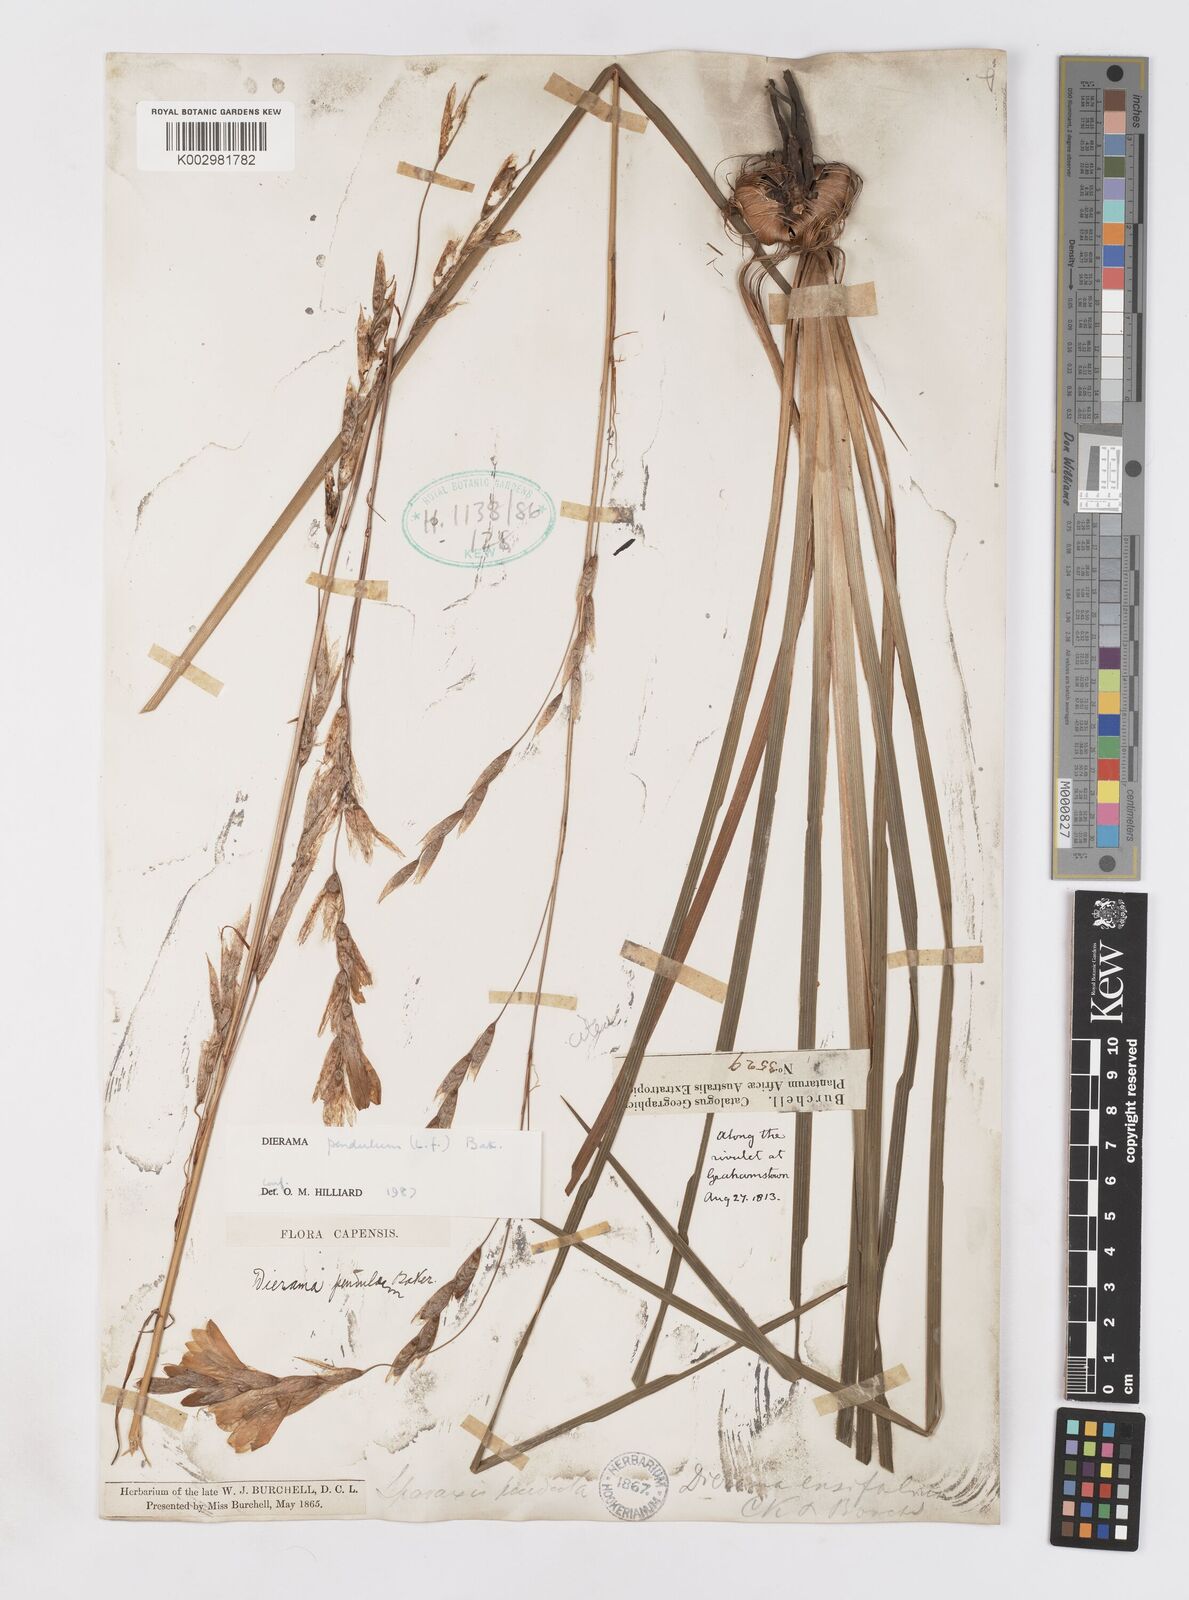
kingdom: Plantae
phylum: Tracheophyta
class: Liliopsida
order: Asparagales
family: Iridaceae
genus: Dierama
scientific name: Dierama pendulum
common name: Grassy-bell
